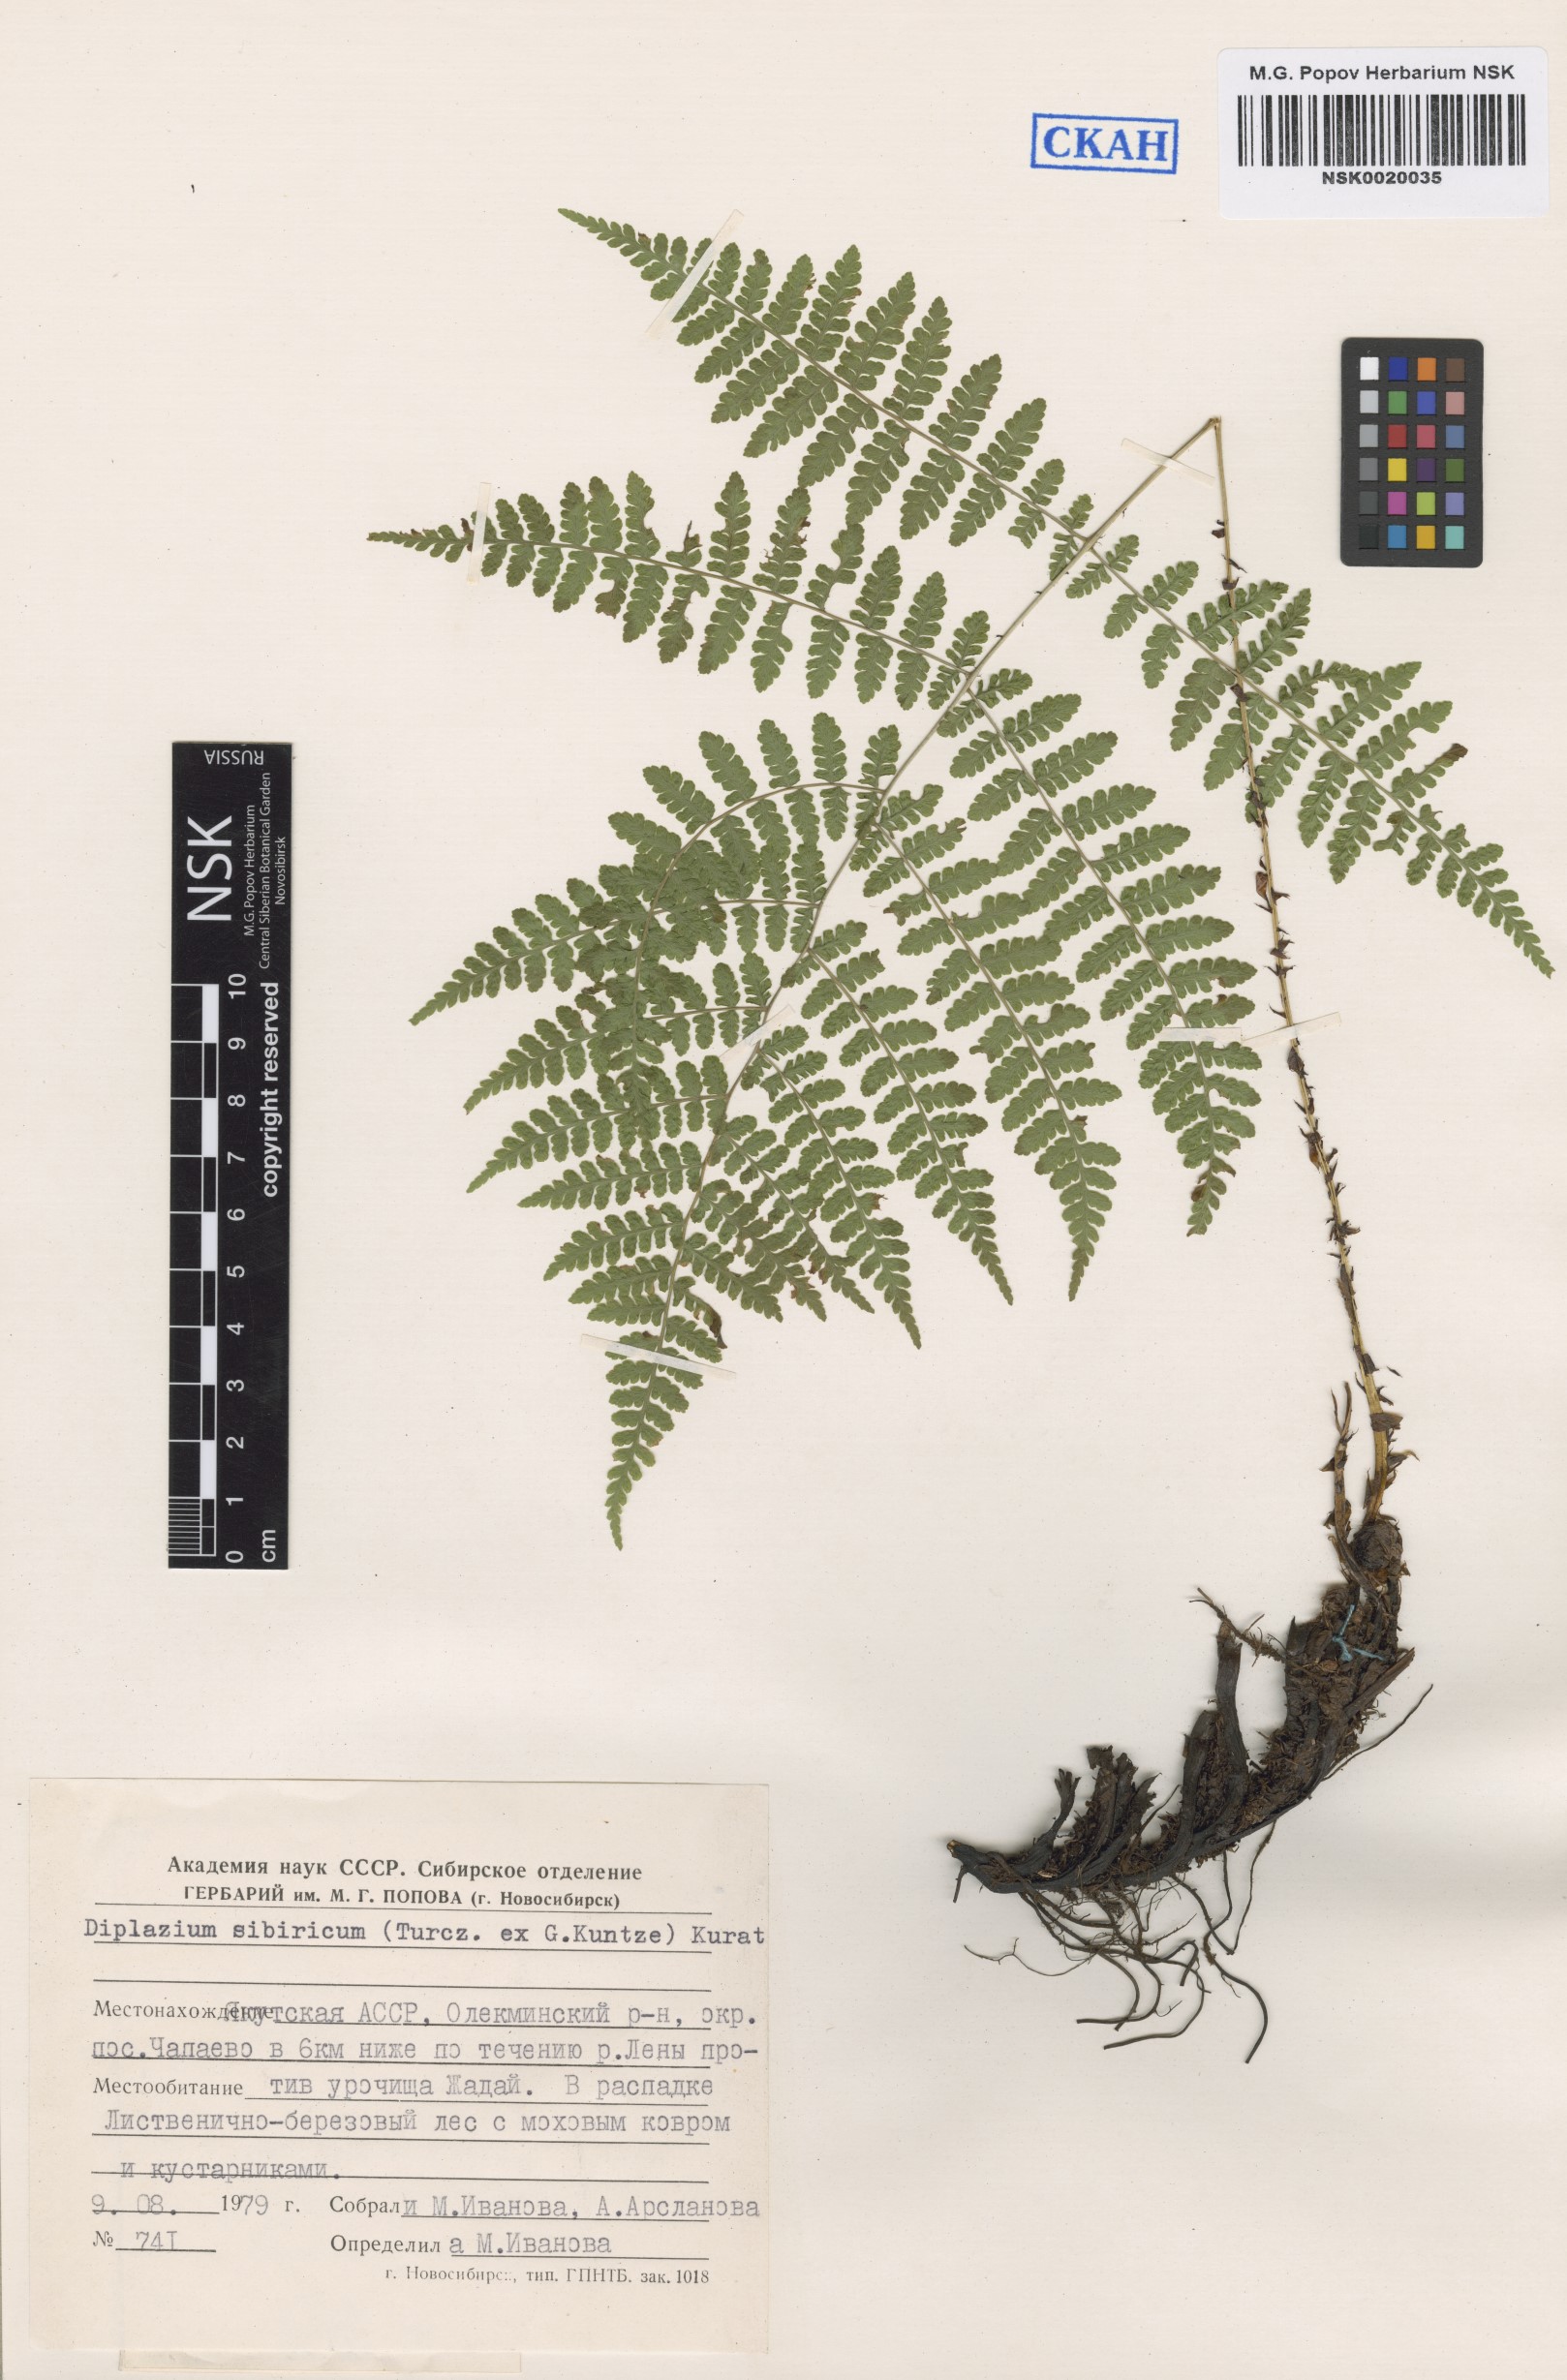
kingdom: Plantae
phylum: Tracheophyta
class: Polypodiopsida
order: Polypodiales
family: Athyriaceae
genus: Diplazium
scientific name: Diplazium sibiricum
